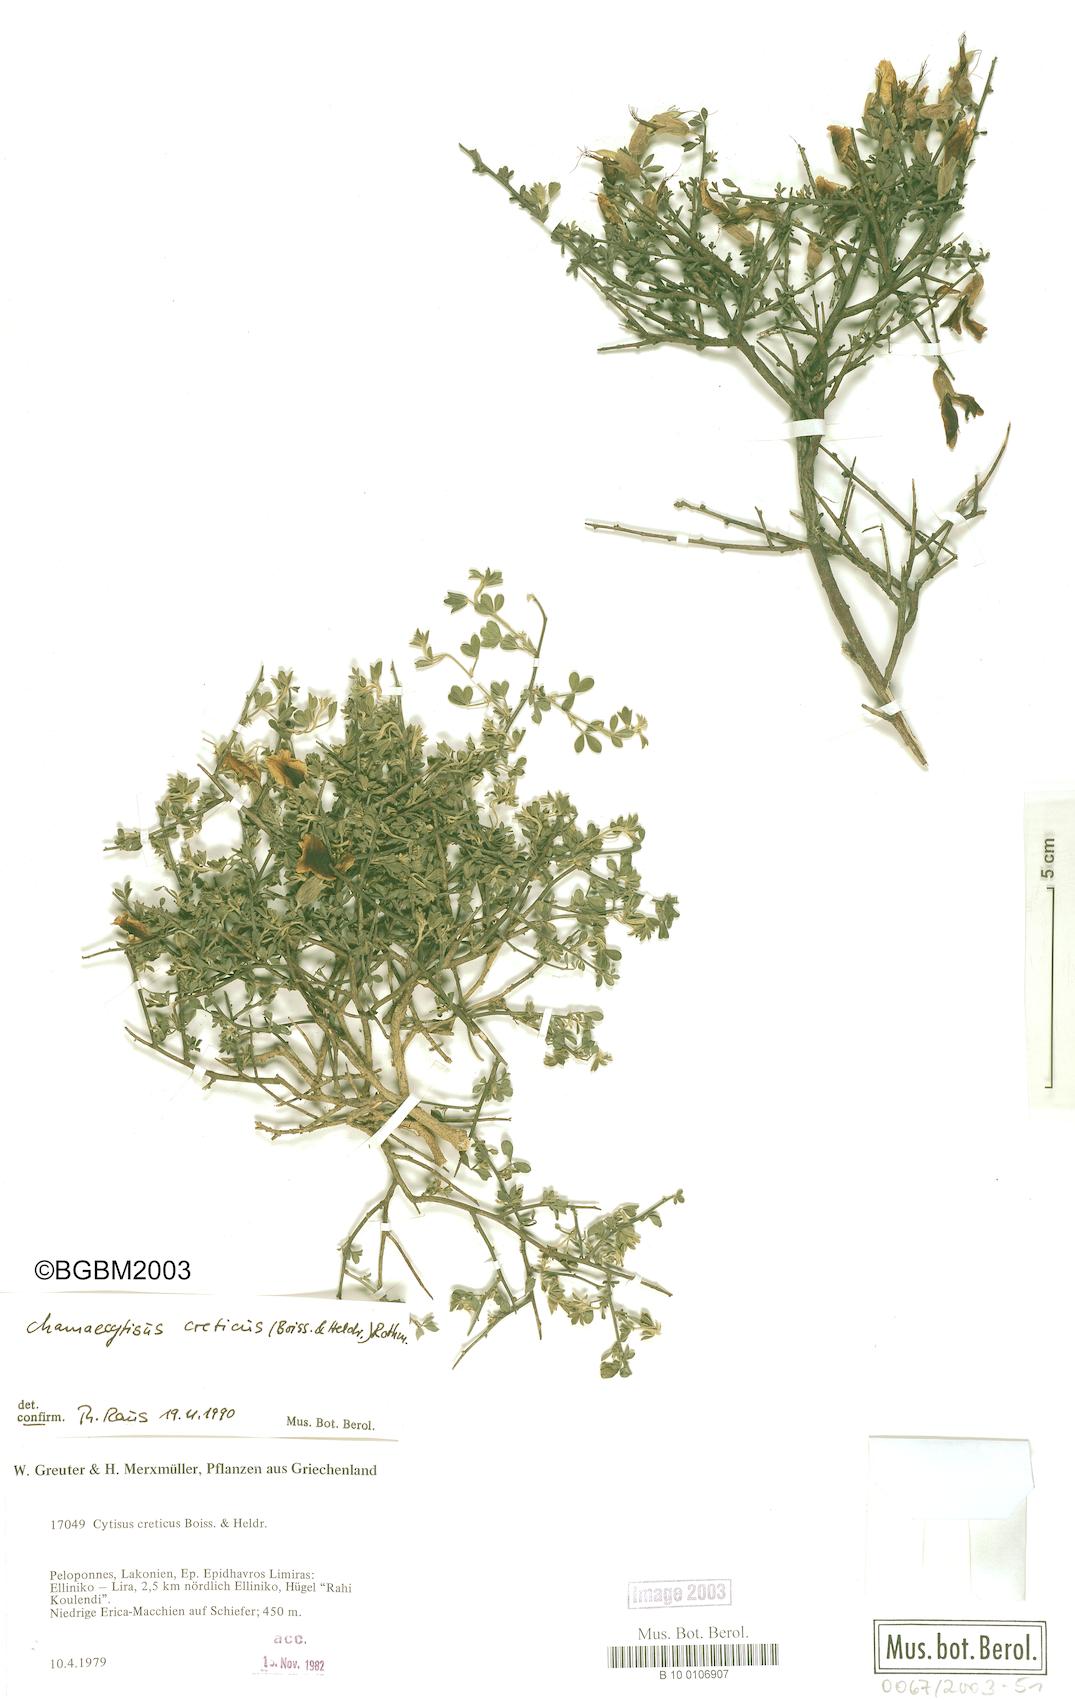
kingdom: Plantae
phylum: Tracheophyta
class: Magnoliopsida
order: Fabales
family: Fabaceae
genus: Chamaecytisus
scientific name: Chamaecytisus spinescens
